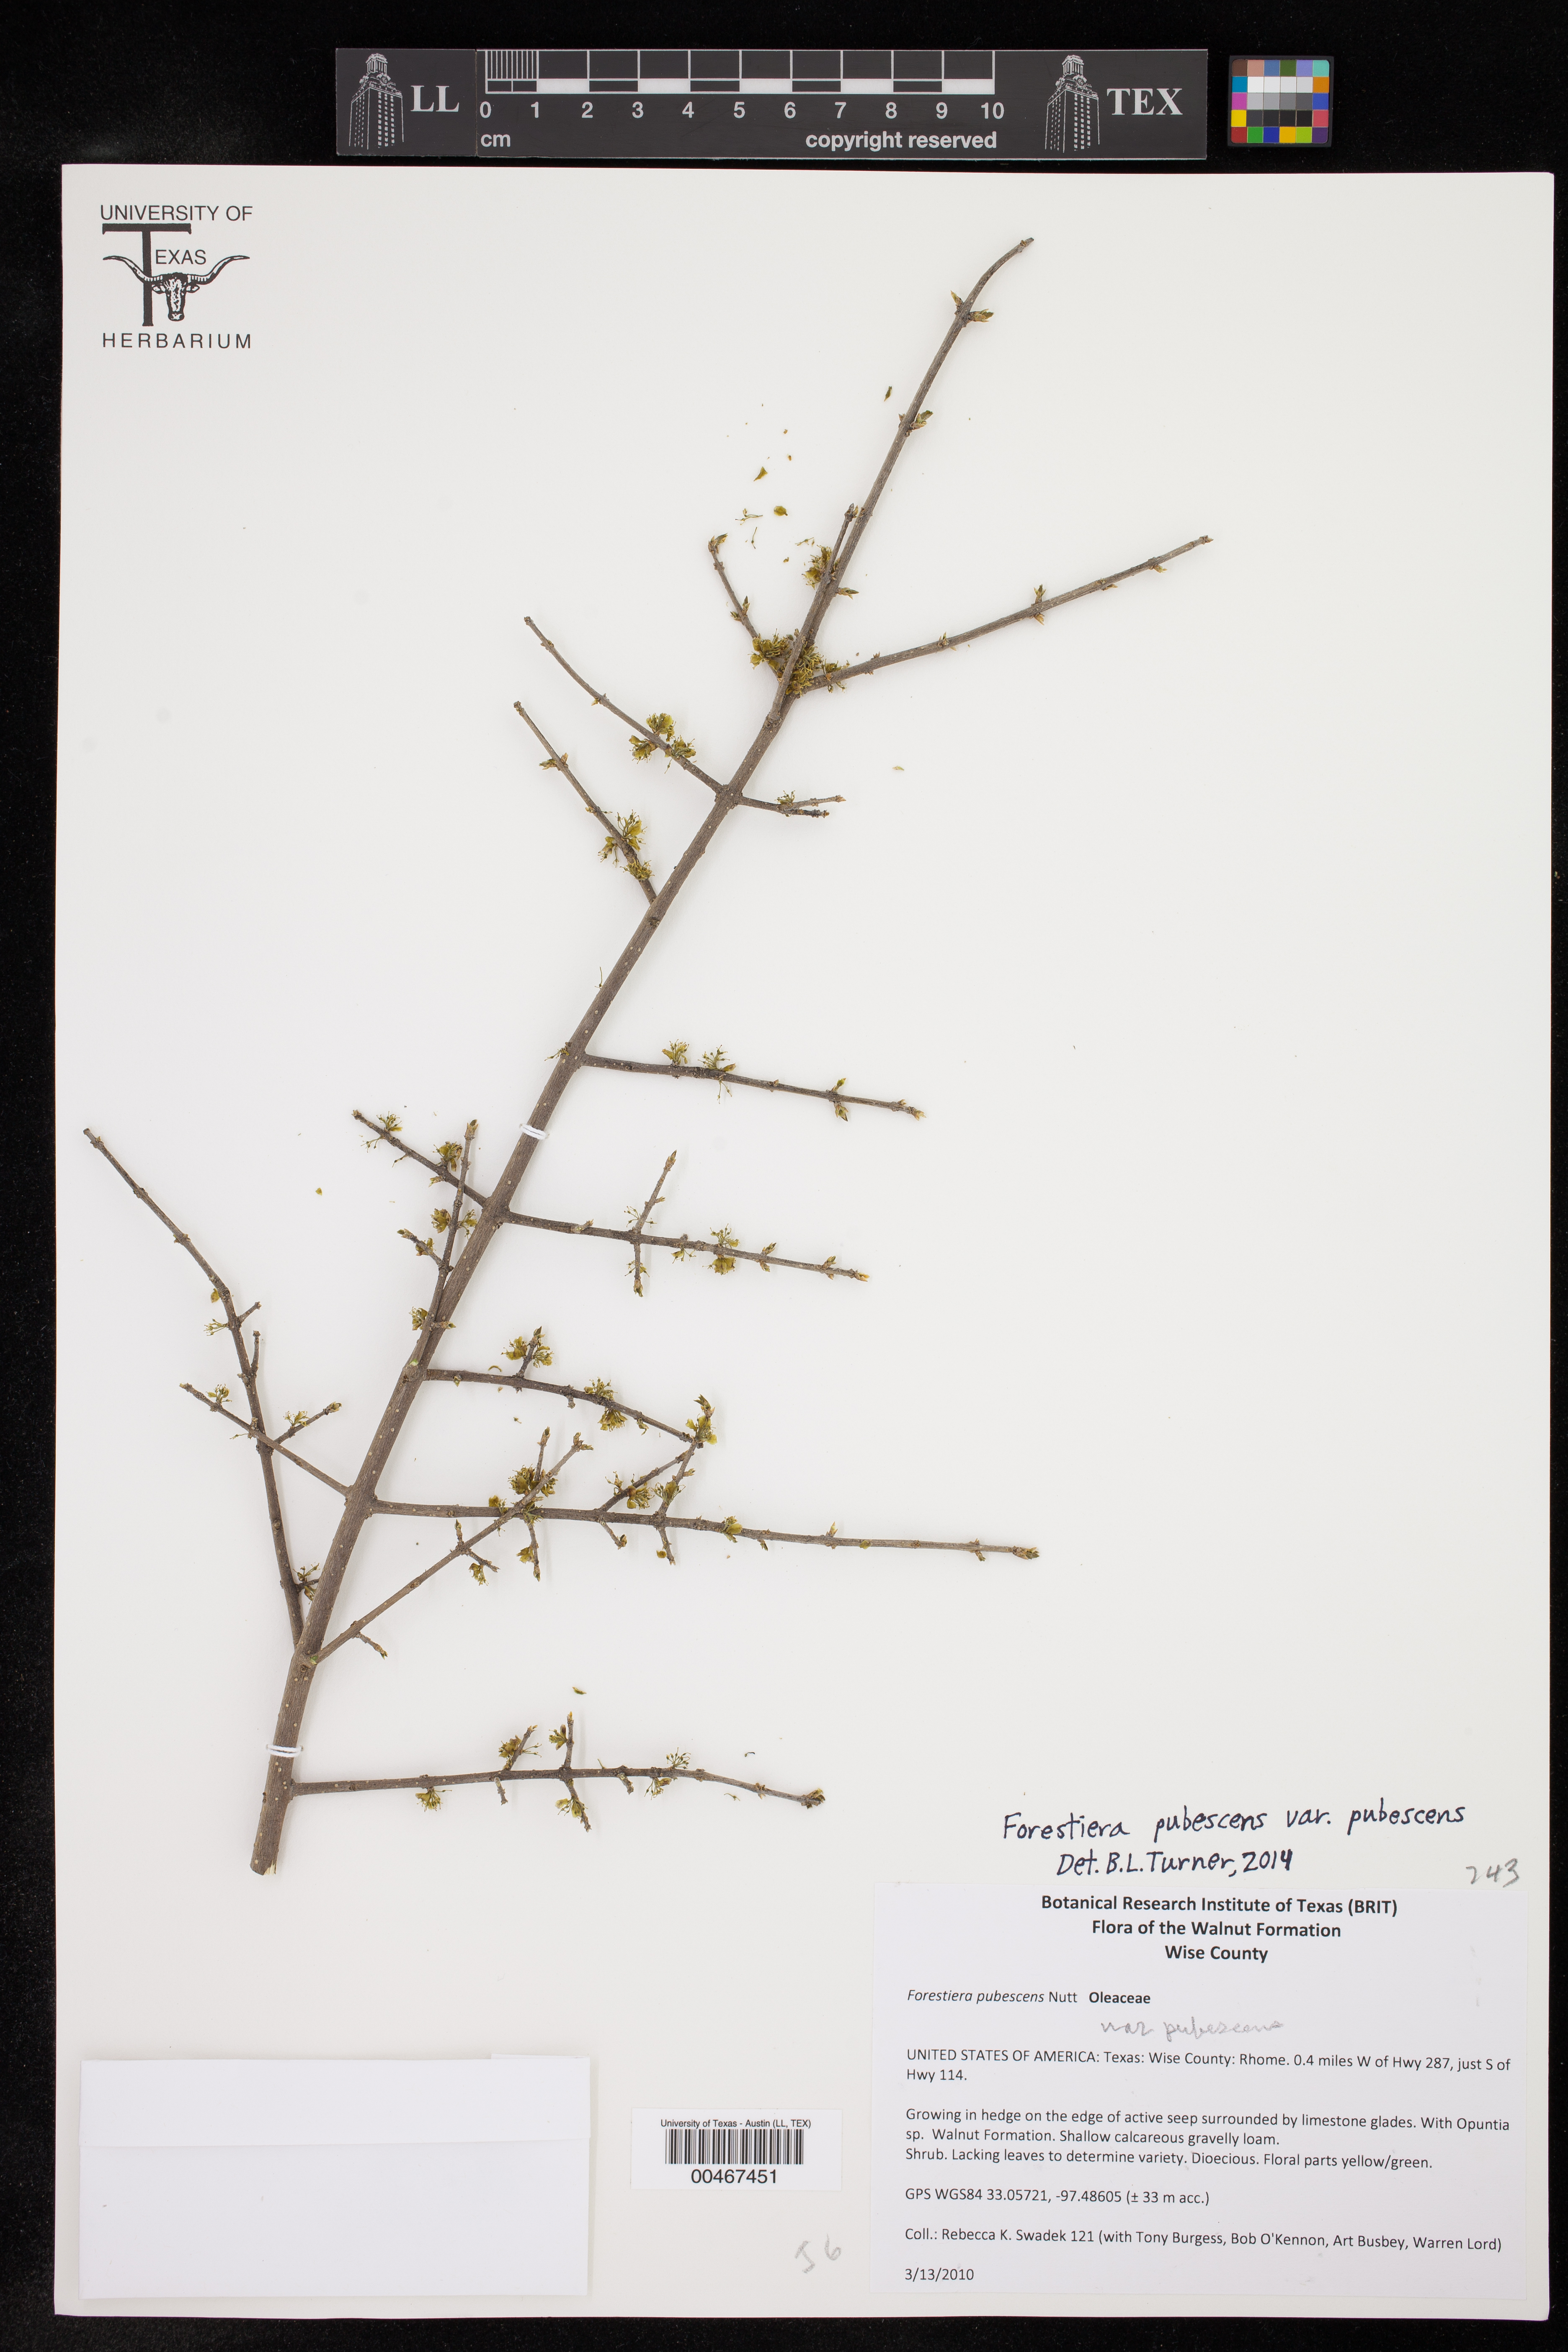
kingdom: Plantae
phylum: Tracheophyta
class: Magnoliopsida
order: Lamiales
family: Oleaceae
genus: Forestiera
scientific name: Forestiera pubescens
